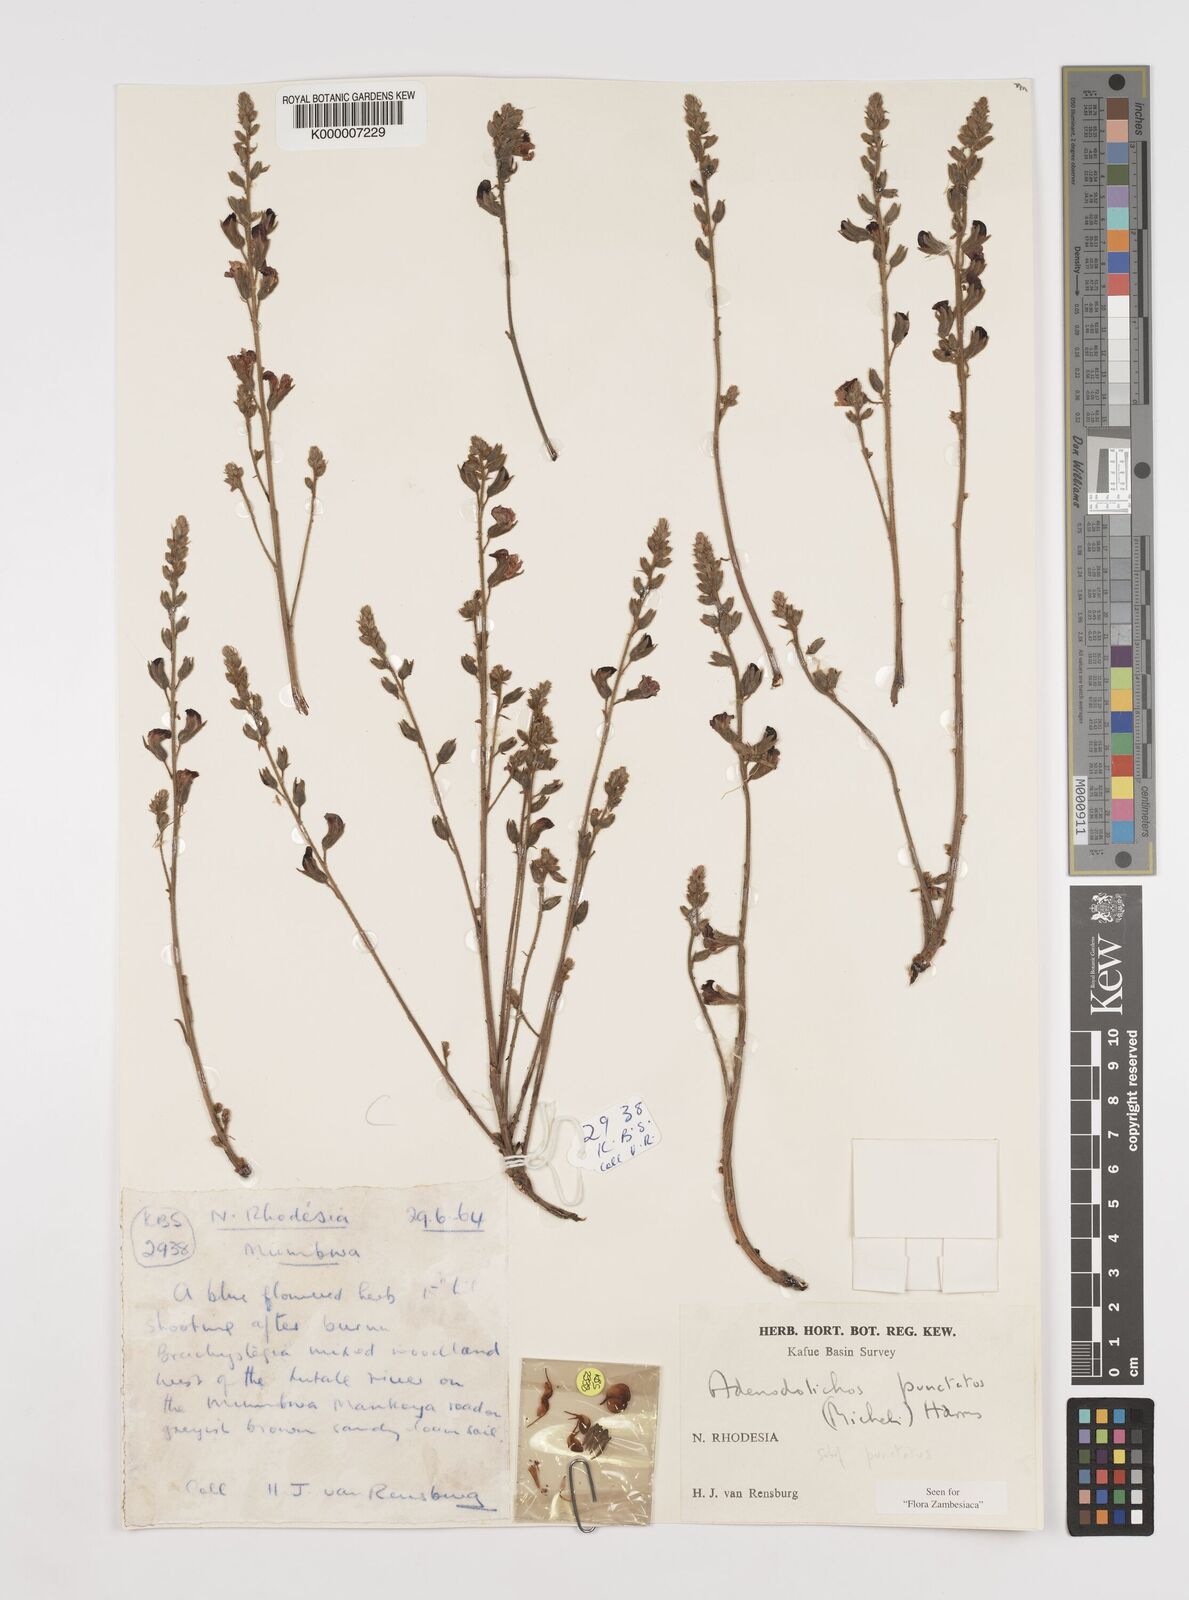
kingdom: Plantae
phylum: Tracheophyta
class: Magnoliopsida
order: Fabales
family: Fabaceae
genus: Adenodolichos
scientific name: Adenodolichos punctatus
